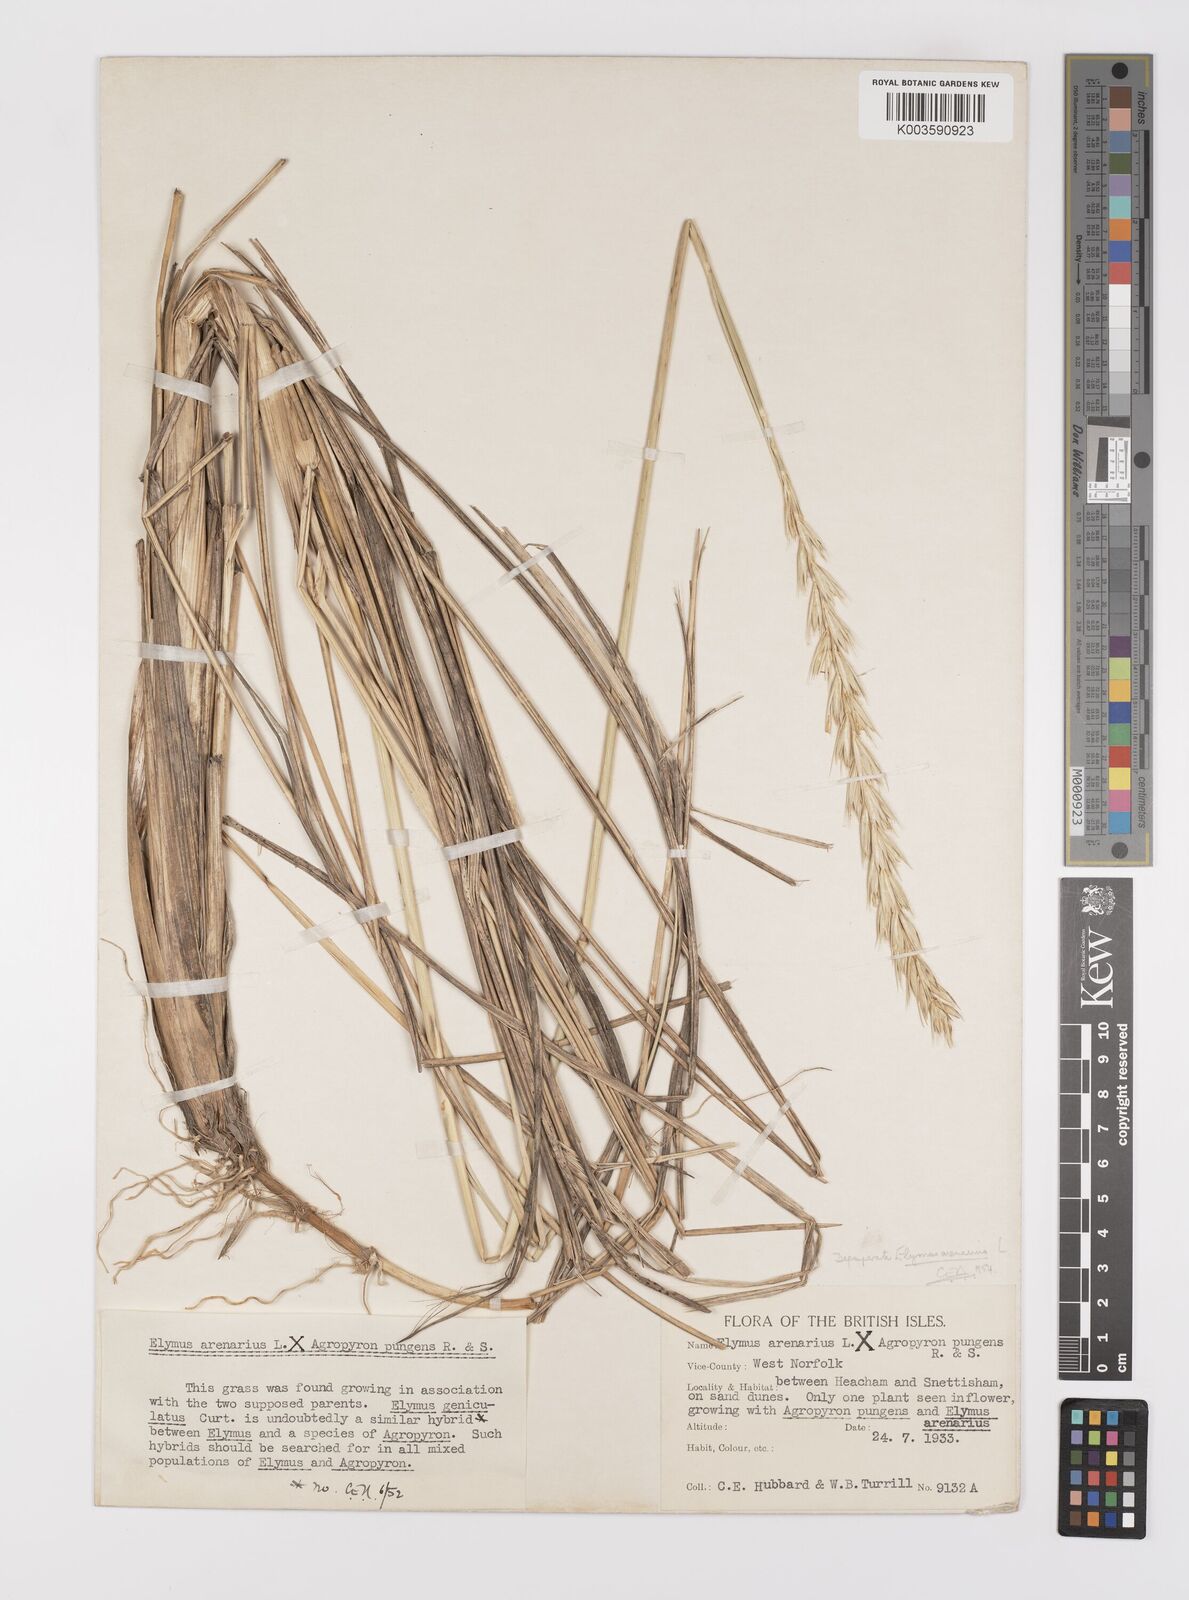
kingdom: Plantae
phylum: Tracheophyta
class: Liliopsida
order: Poales
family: Poaceae
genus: Leymus
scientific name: Leymus arenarius
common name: Lyme-grass
